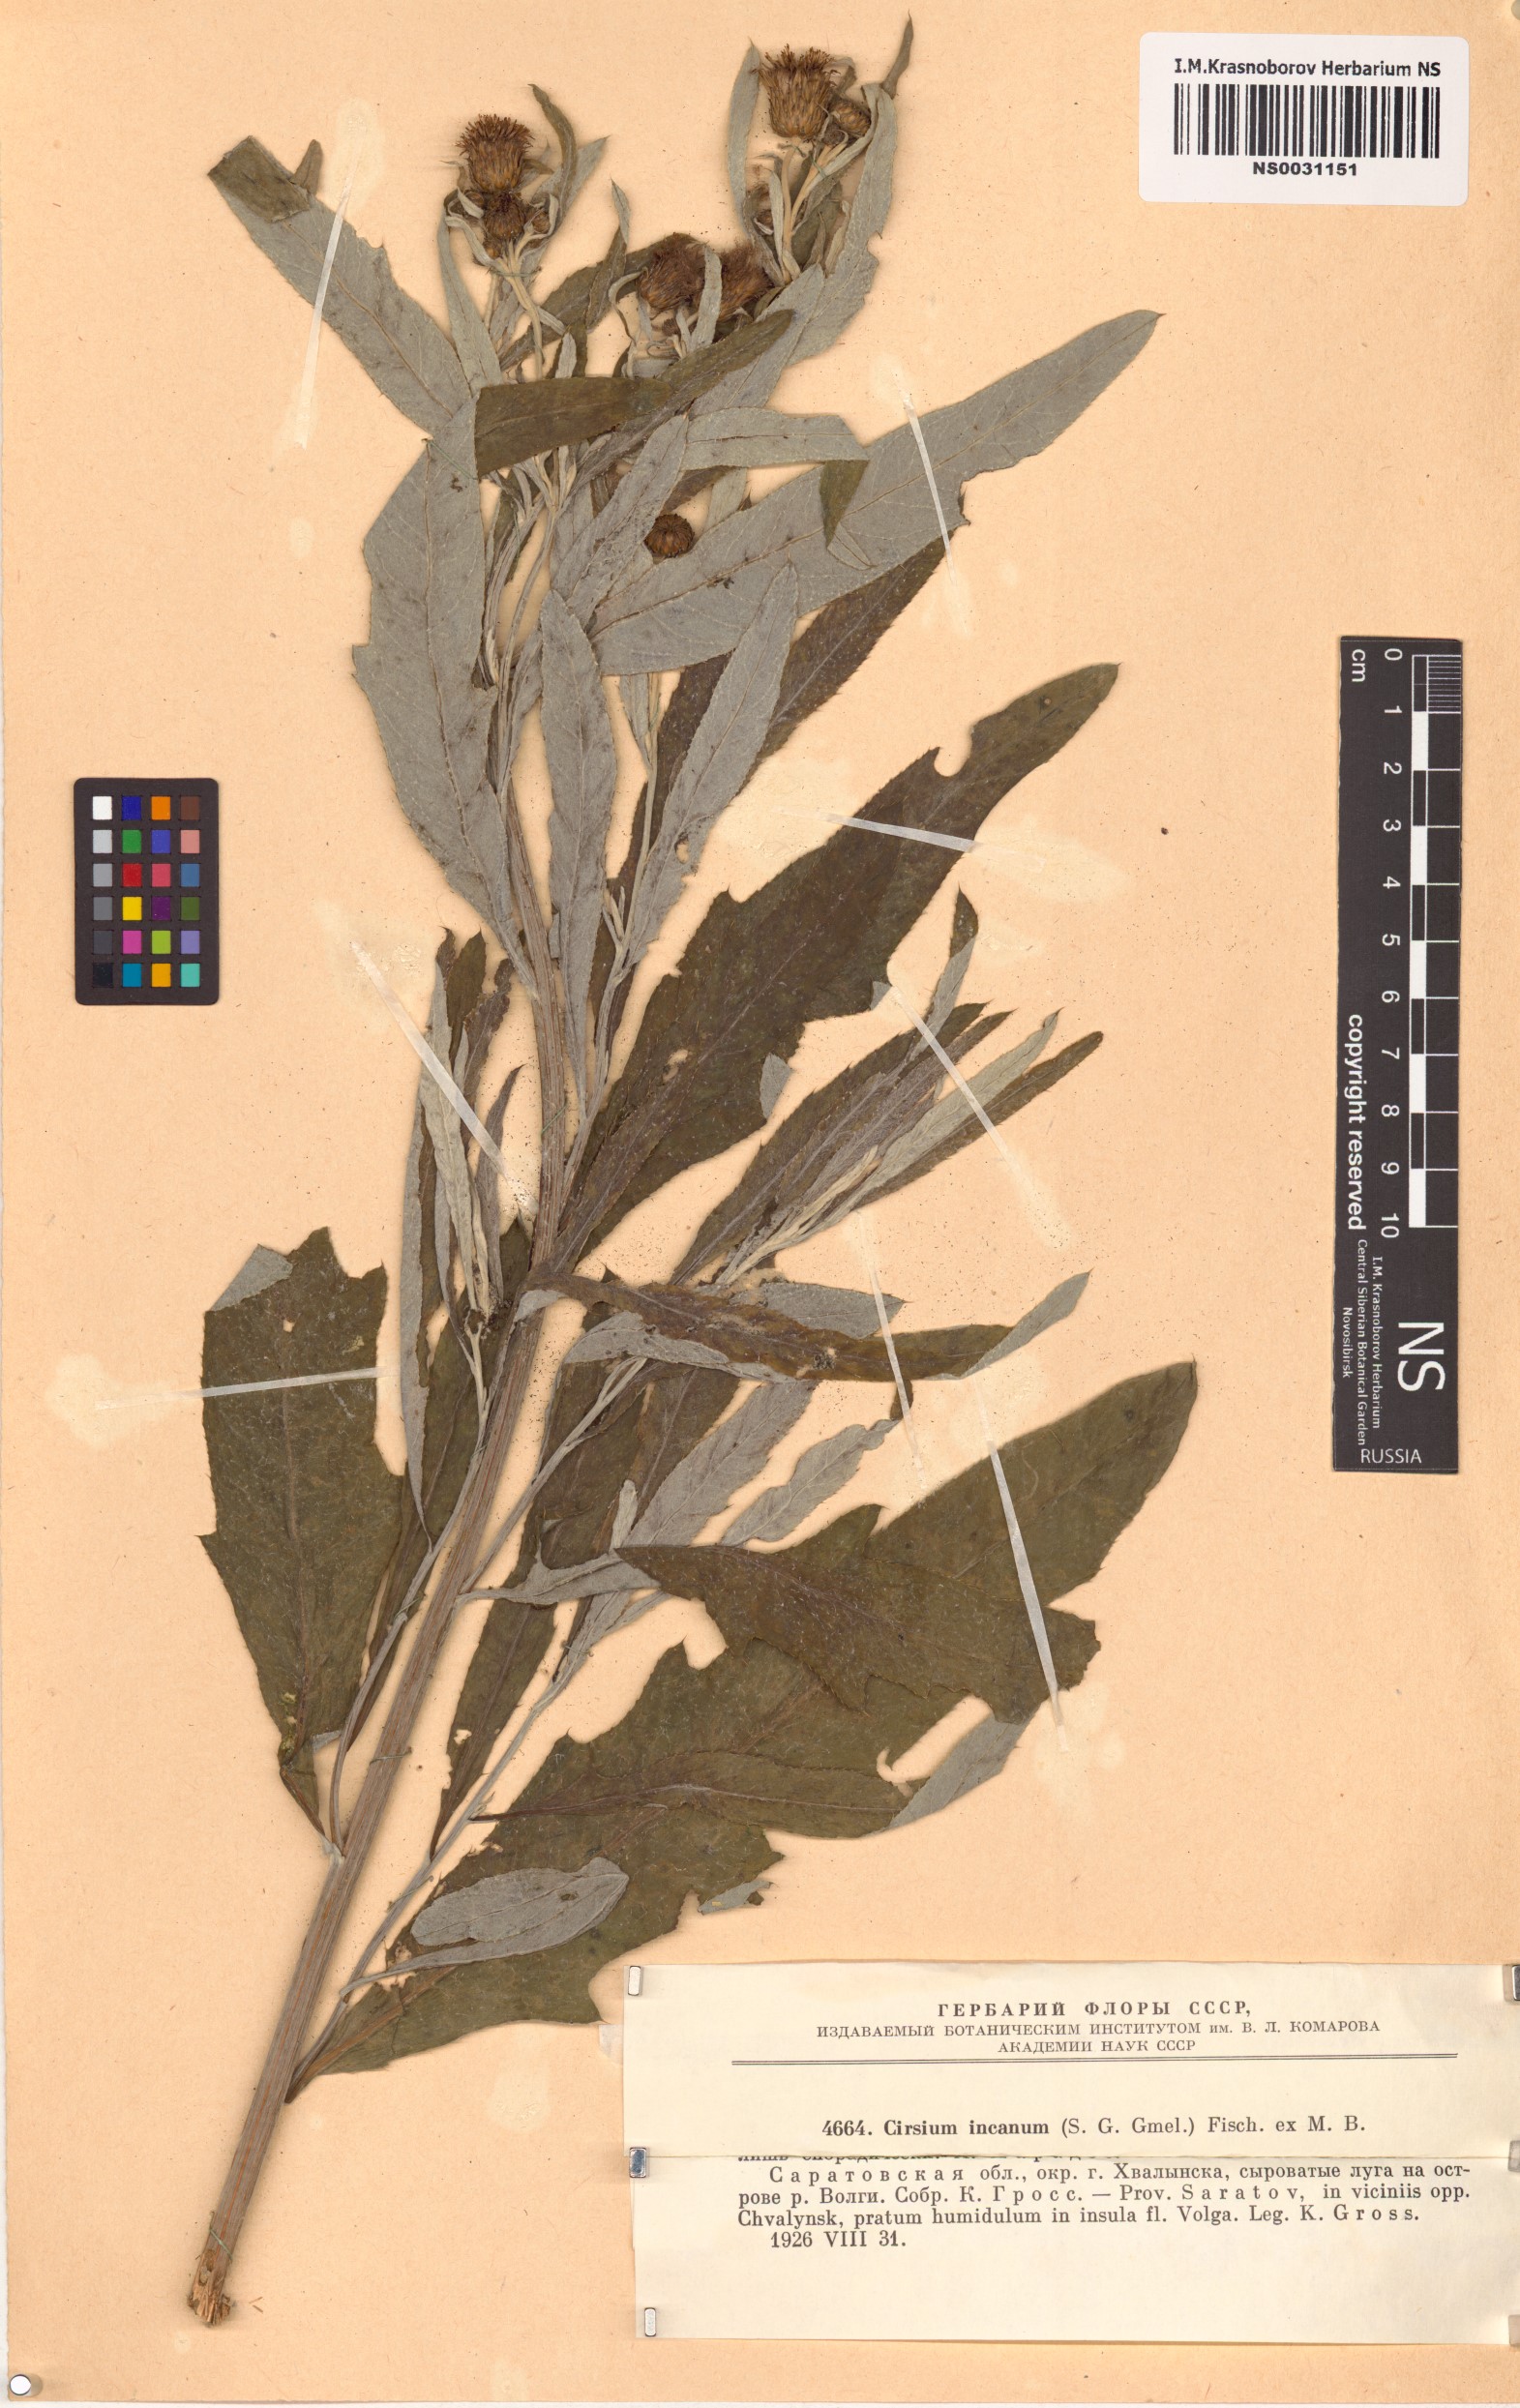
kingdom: Plantae
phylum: Tracheophyta
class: Magnoliopsida
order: Asterales
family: Asteraceae
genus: Cirsium
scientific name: Cirsium arvense
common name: Creeping thistle
